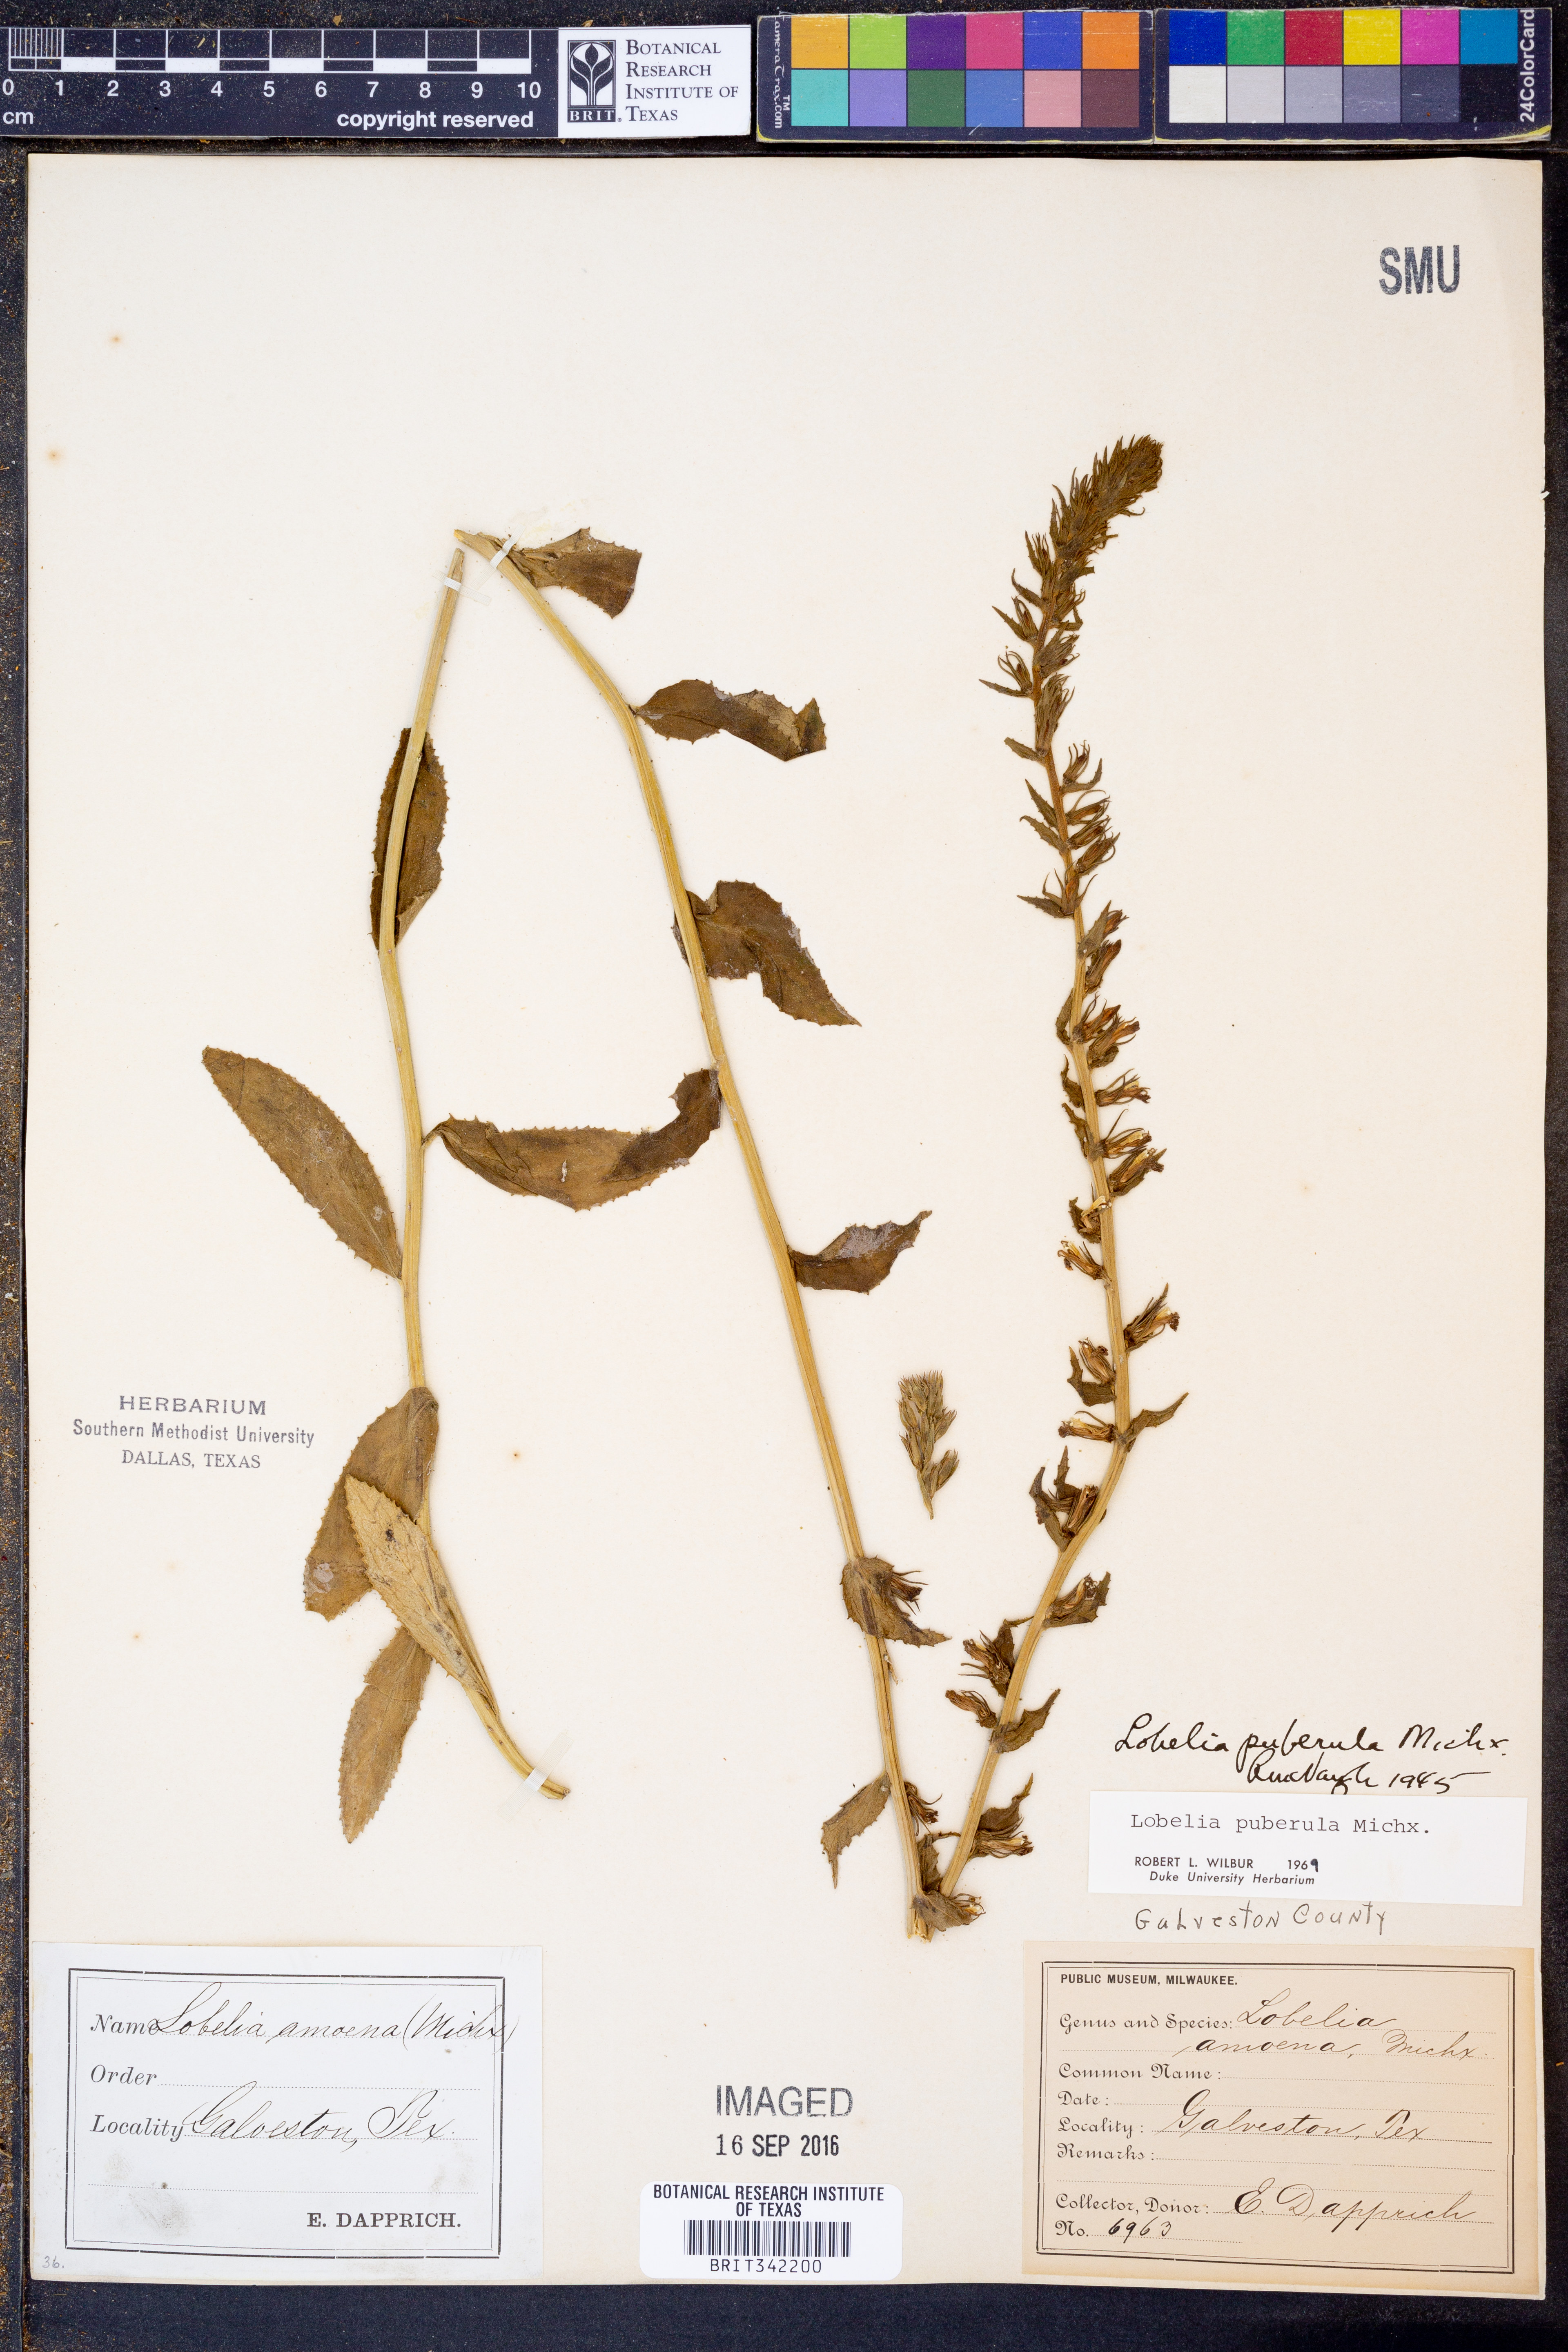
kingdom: Plantae
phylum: Tracheophyta
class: Magnoliopsida
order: Asterales
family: Campanulaceae
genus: Lobelia
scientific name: Lobelia puberula
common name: Purple dewdrop
